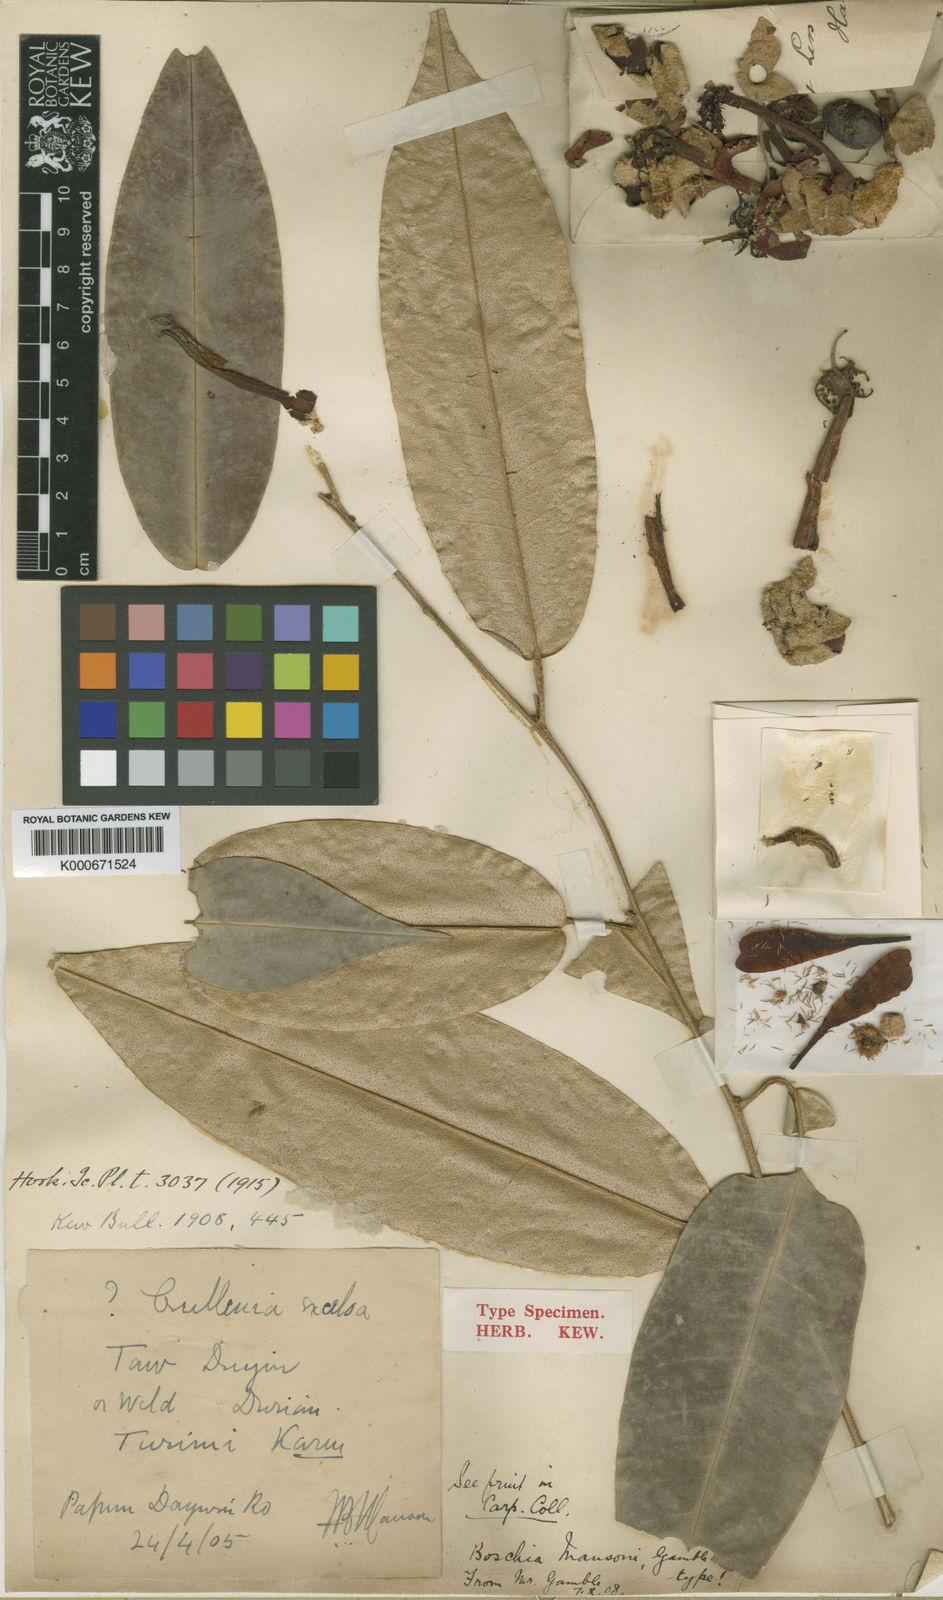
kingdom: Plantae
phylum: Tracheophyta
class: Magnoliopsida
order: Malvales
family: Malvaceae
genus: Boschia
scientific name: Boschia mansonii
